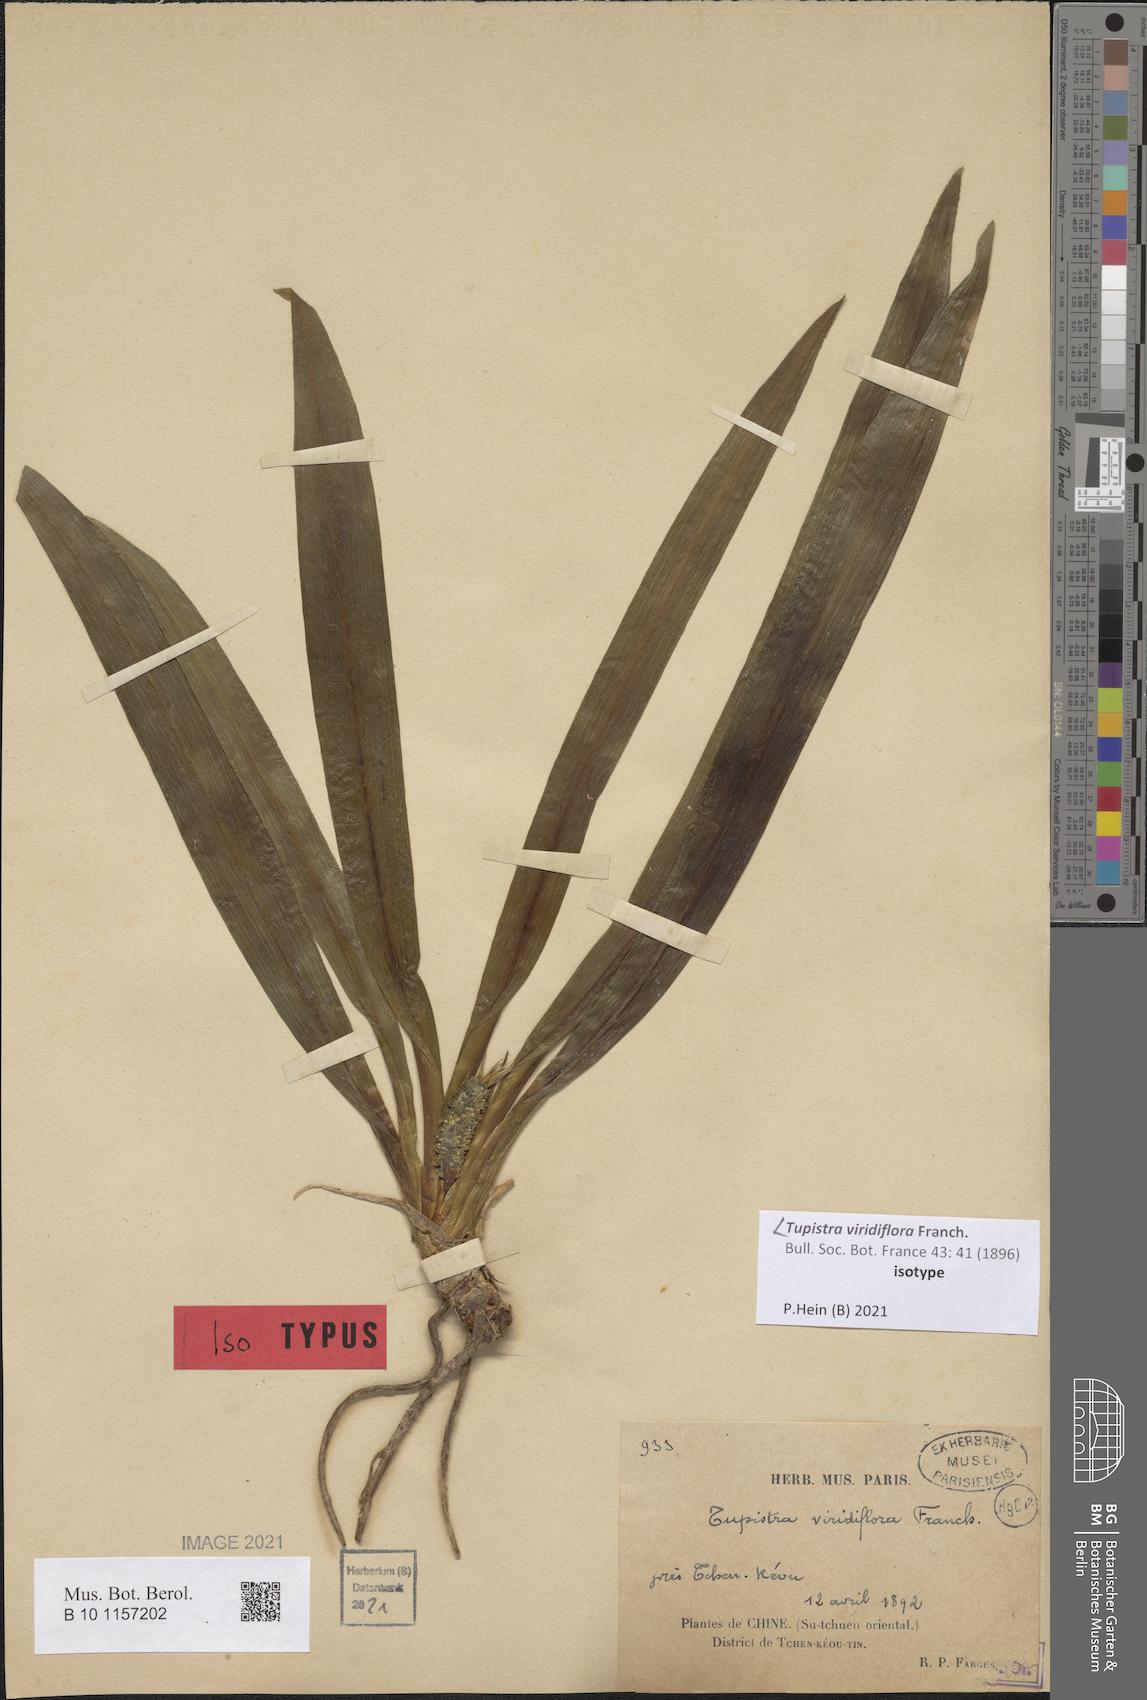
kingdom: Plantae
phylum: Tracheophyta
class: Liliopsida
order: Asparagales
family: Asparagaceae
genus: Rohdea
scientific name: Rohdea fargesii
